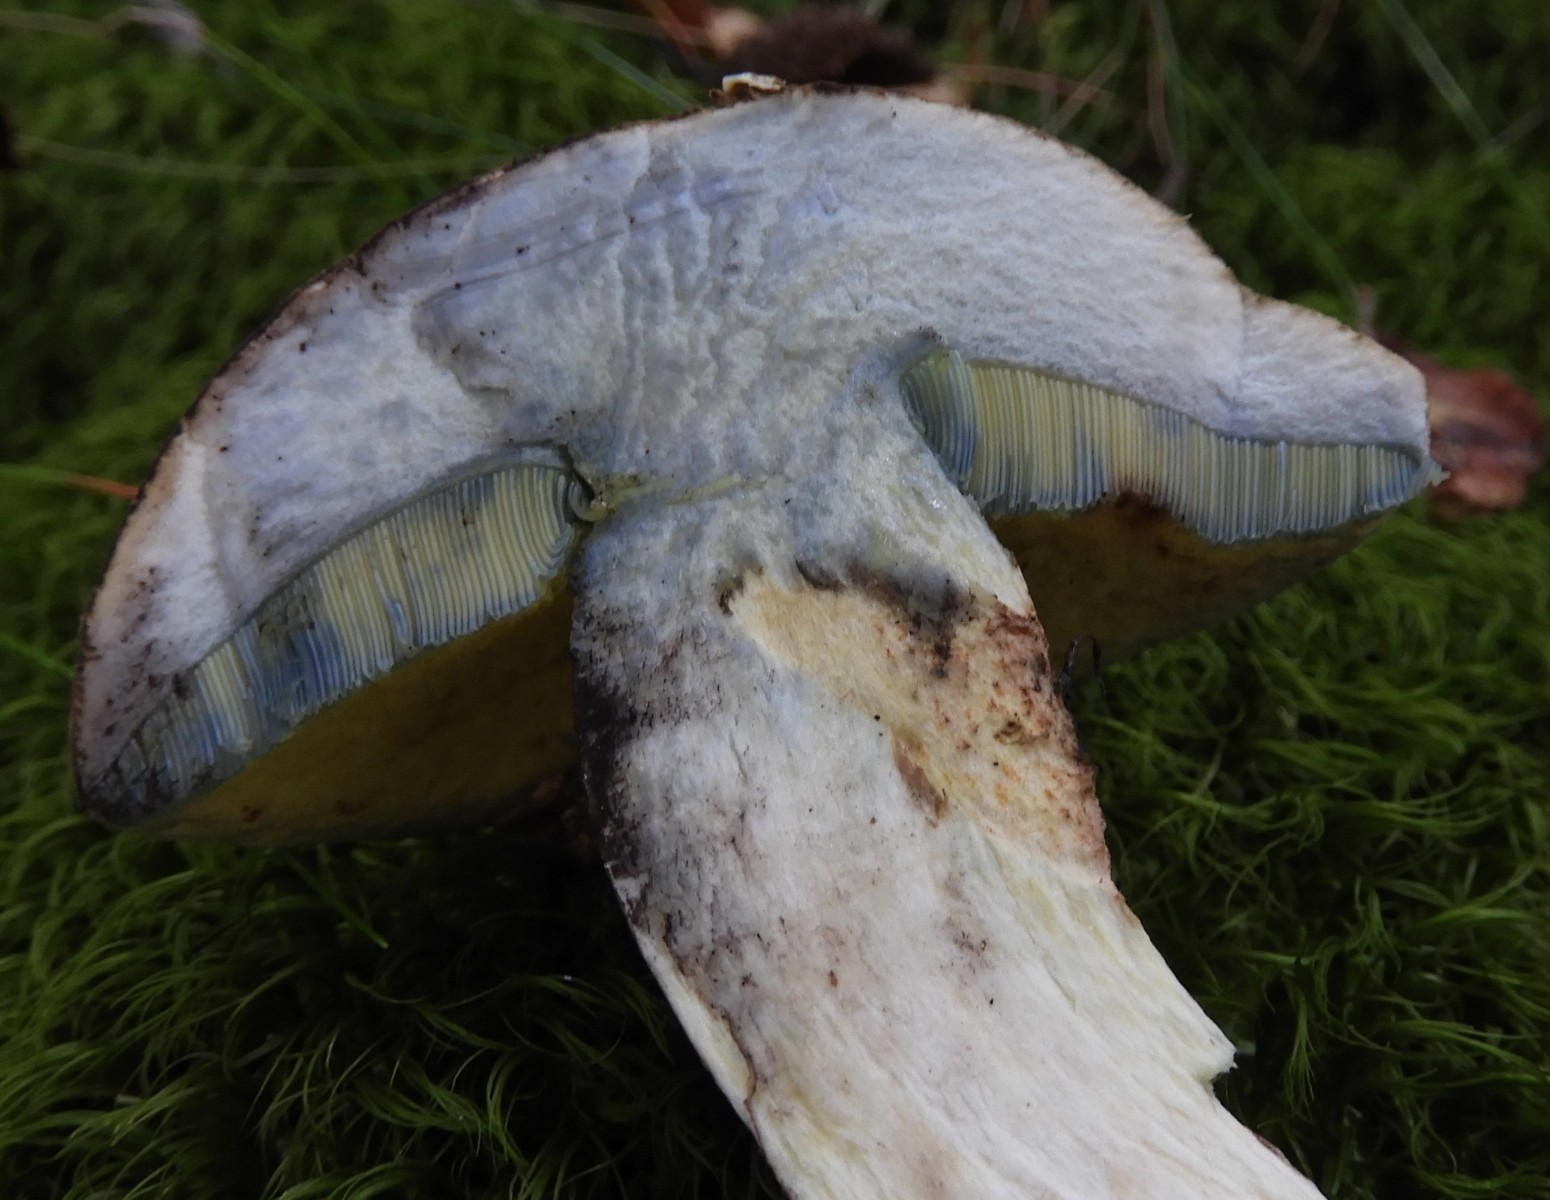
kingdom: Fungi
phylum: Basidiomycota
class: Agaricomycetes
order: Boletales
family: Boletaceae
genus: Caloboletus
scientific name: Caloboletus calopus
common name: skønfodet rørhat
